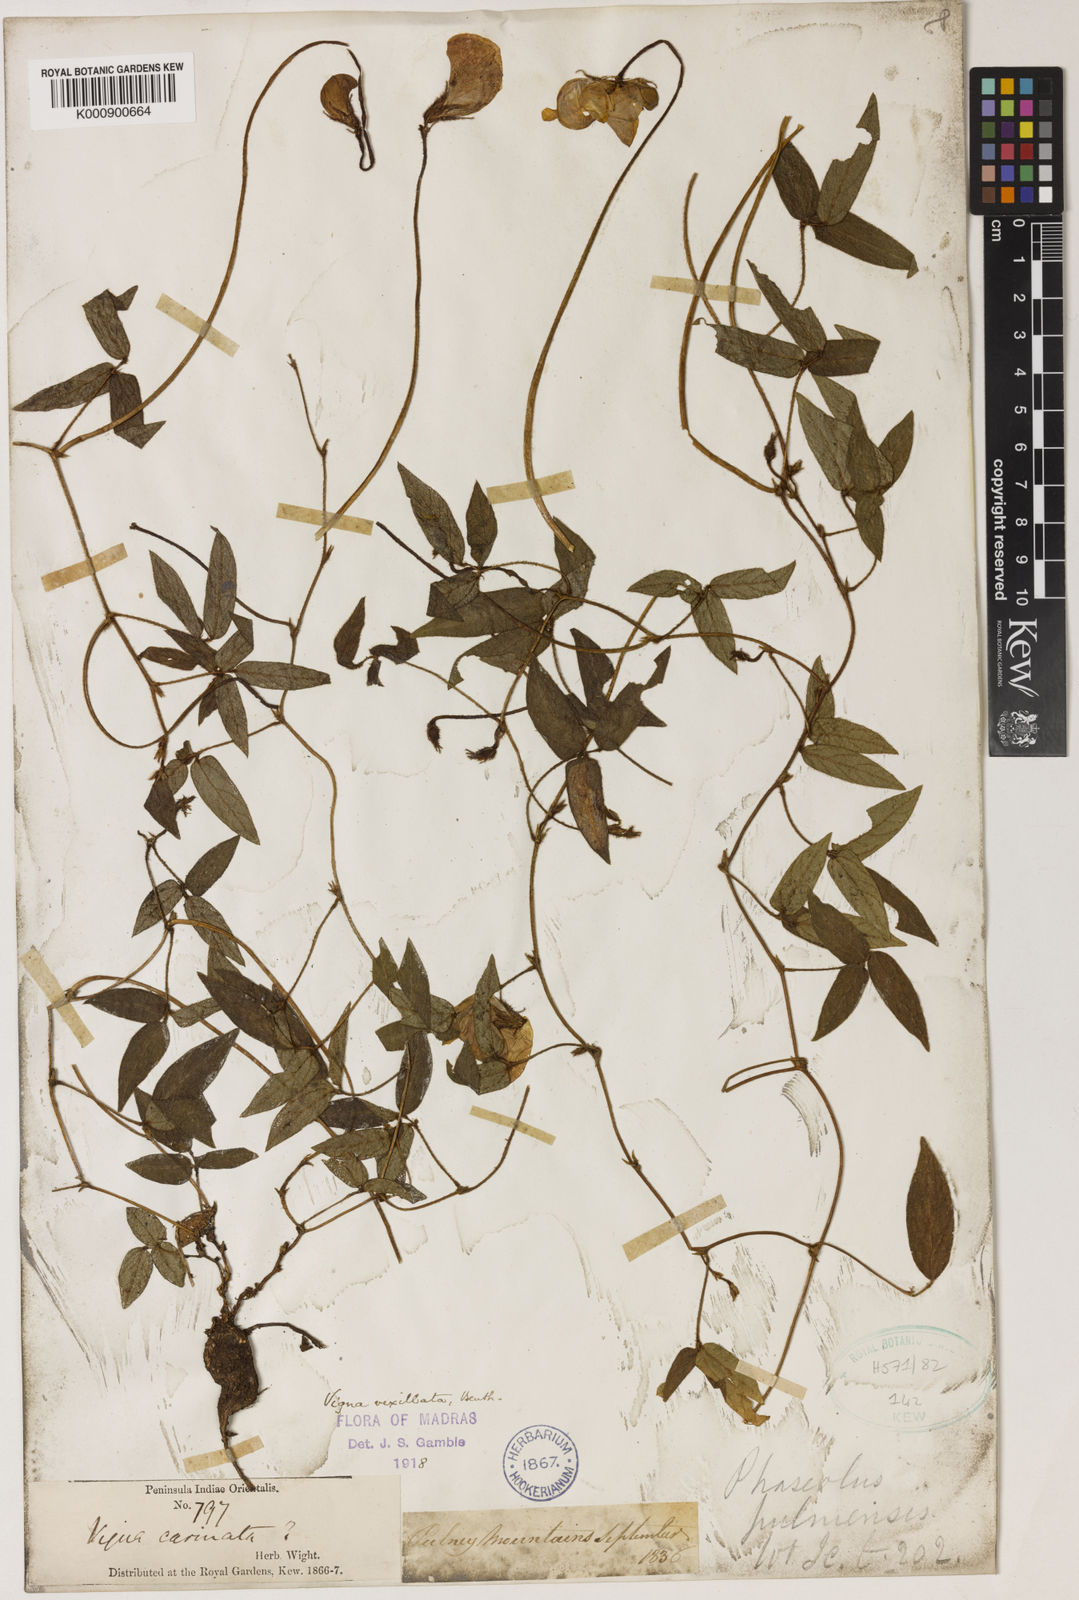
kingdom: Plantae
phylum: Tracheophyta
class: Magnoliopsida
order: Fabales
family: Fabaceae
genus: Vigna
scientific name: Vigna vexillata
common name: Zombi pea
